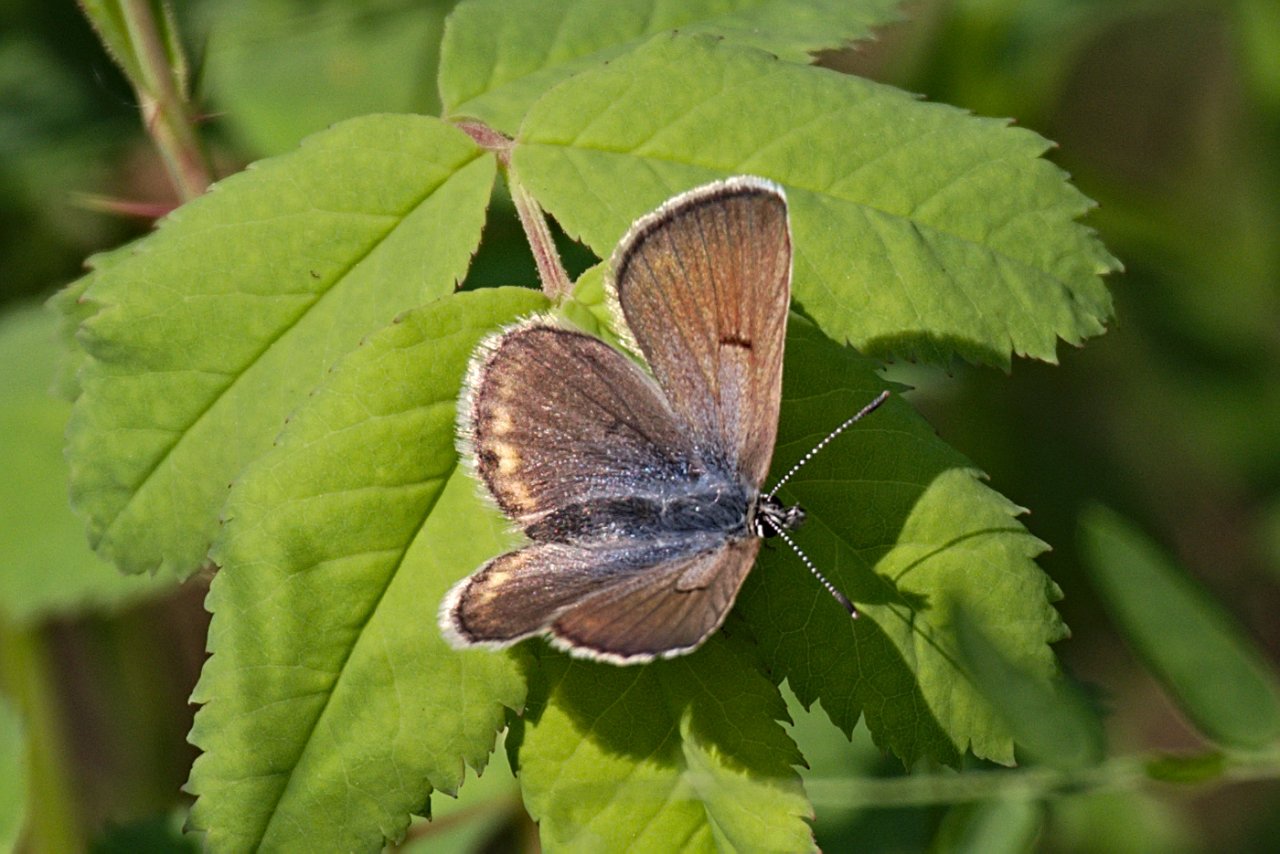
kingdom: Animalia
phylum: Arthropoda
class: Insecta
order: Lepidoptera
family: Lycaenidae
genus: Plebejus
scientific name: Plebejus saepiolus
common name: Greenish Blue
